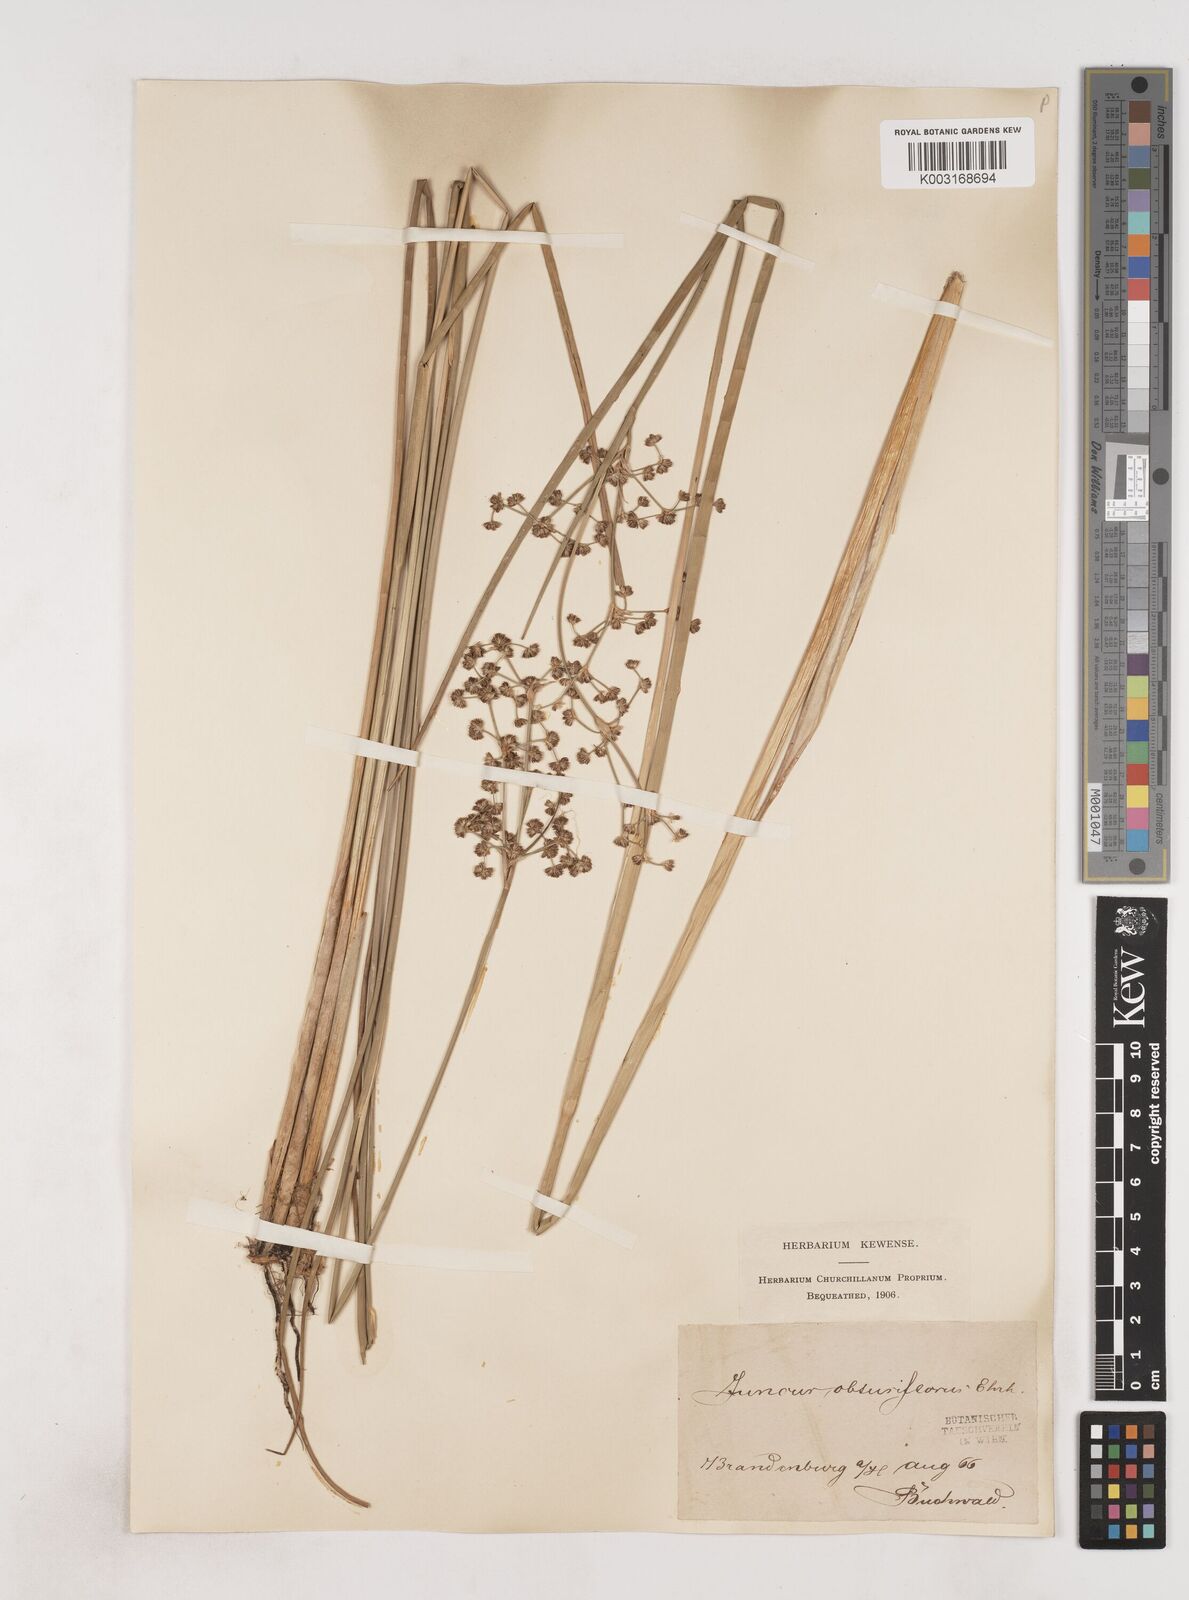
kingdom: Plantae
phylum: Tracheophyta
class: Liliopsida
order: Poales
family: Juncaceae
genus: Juncus
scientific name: Juncus subnodulosus
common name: Blunt-flowered rush
